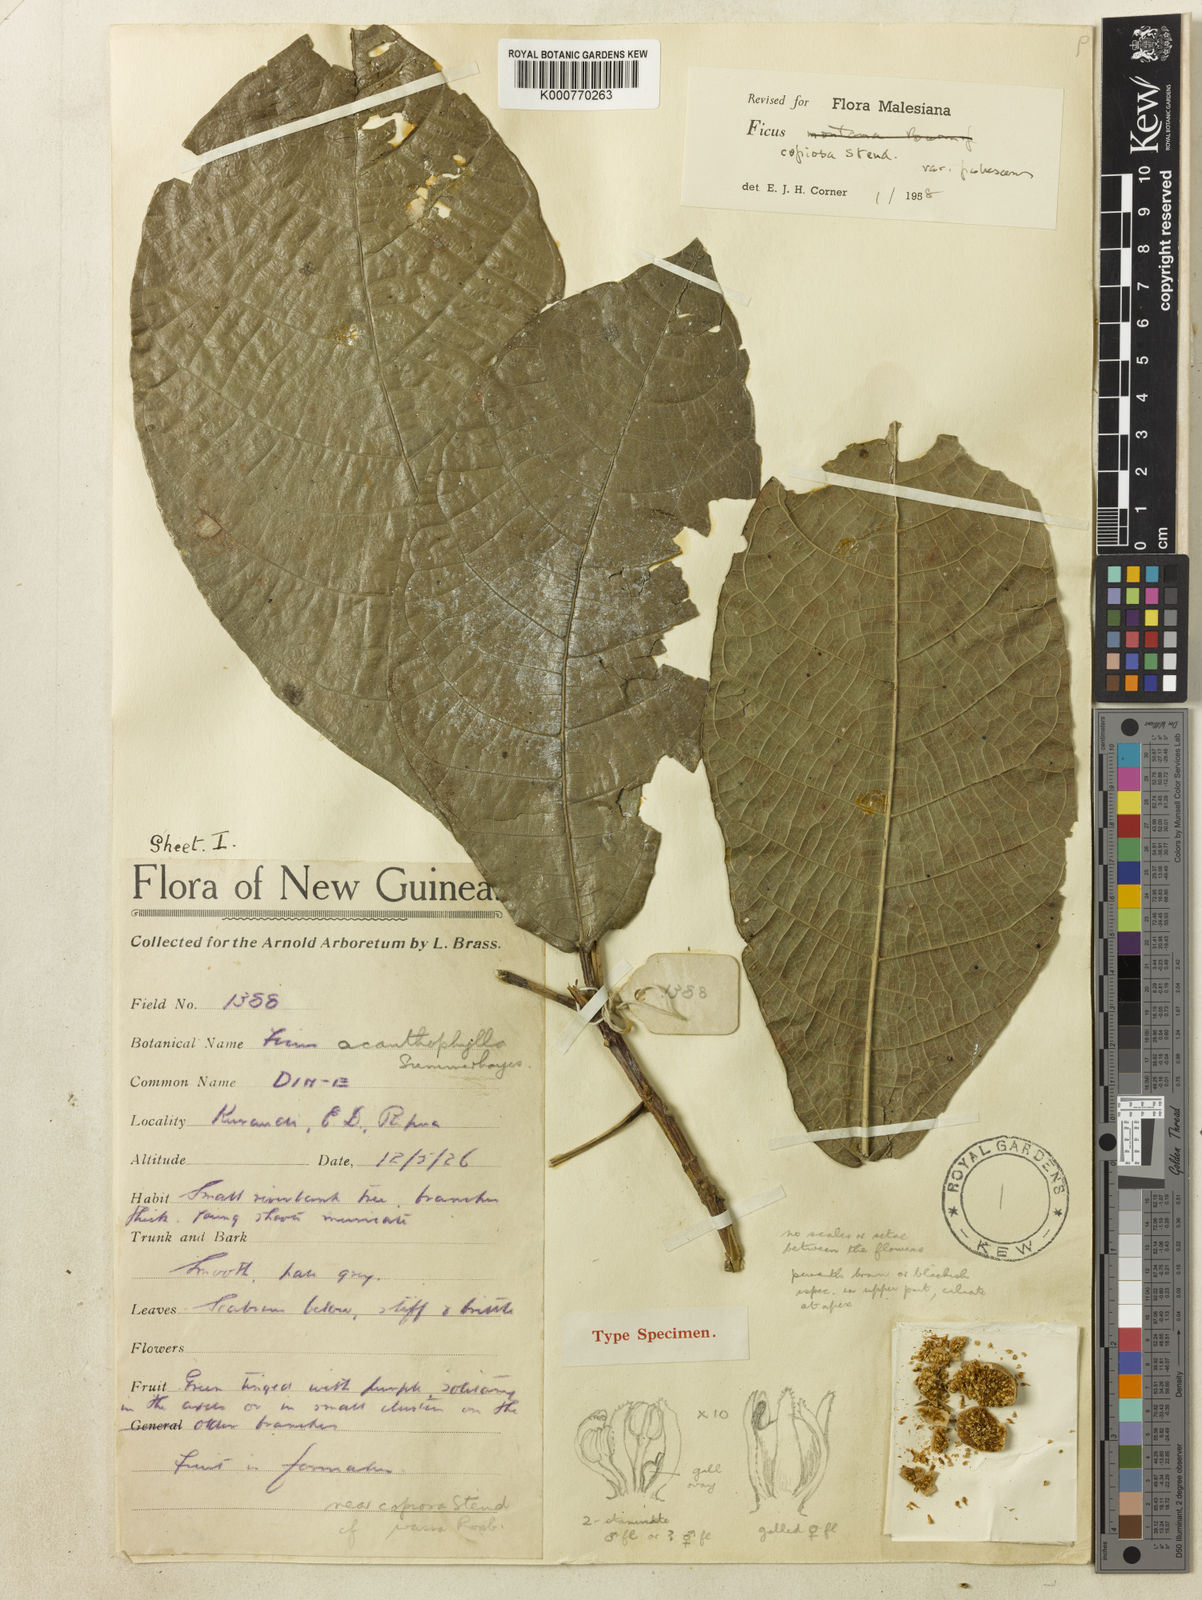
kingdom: Plantae
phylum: Tracheophyta
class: Magnoliopsida
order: Rosales
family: Moraceae
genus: Ficus
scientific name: Ficus copiosa
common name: Plentiful fig
